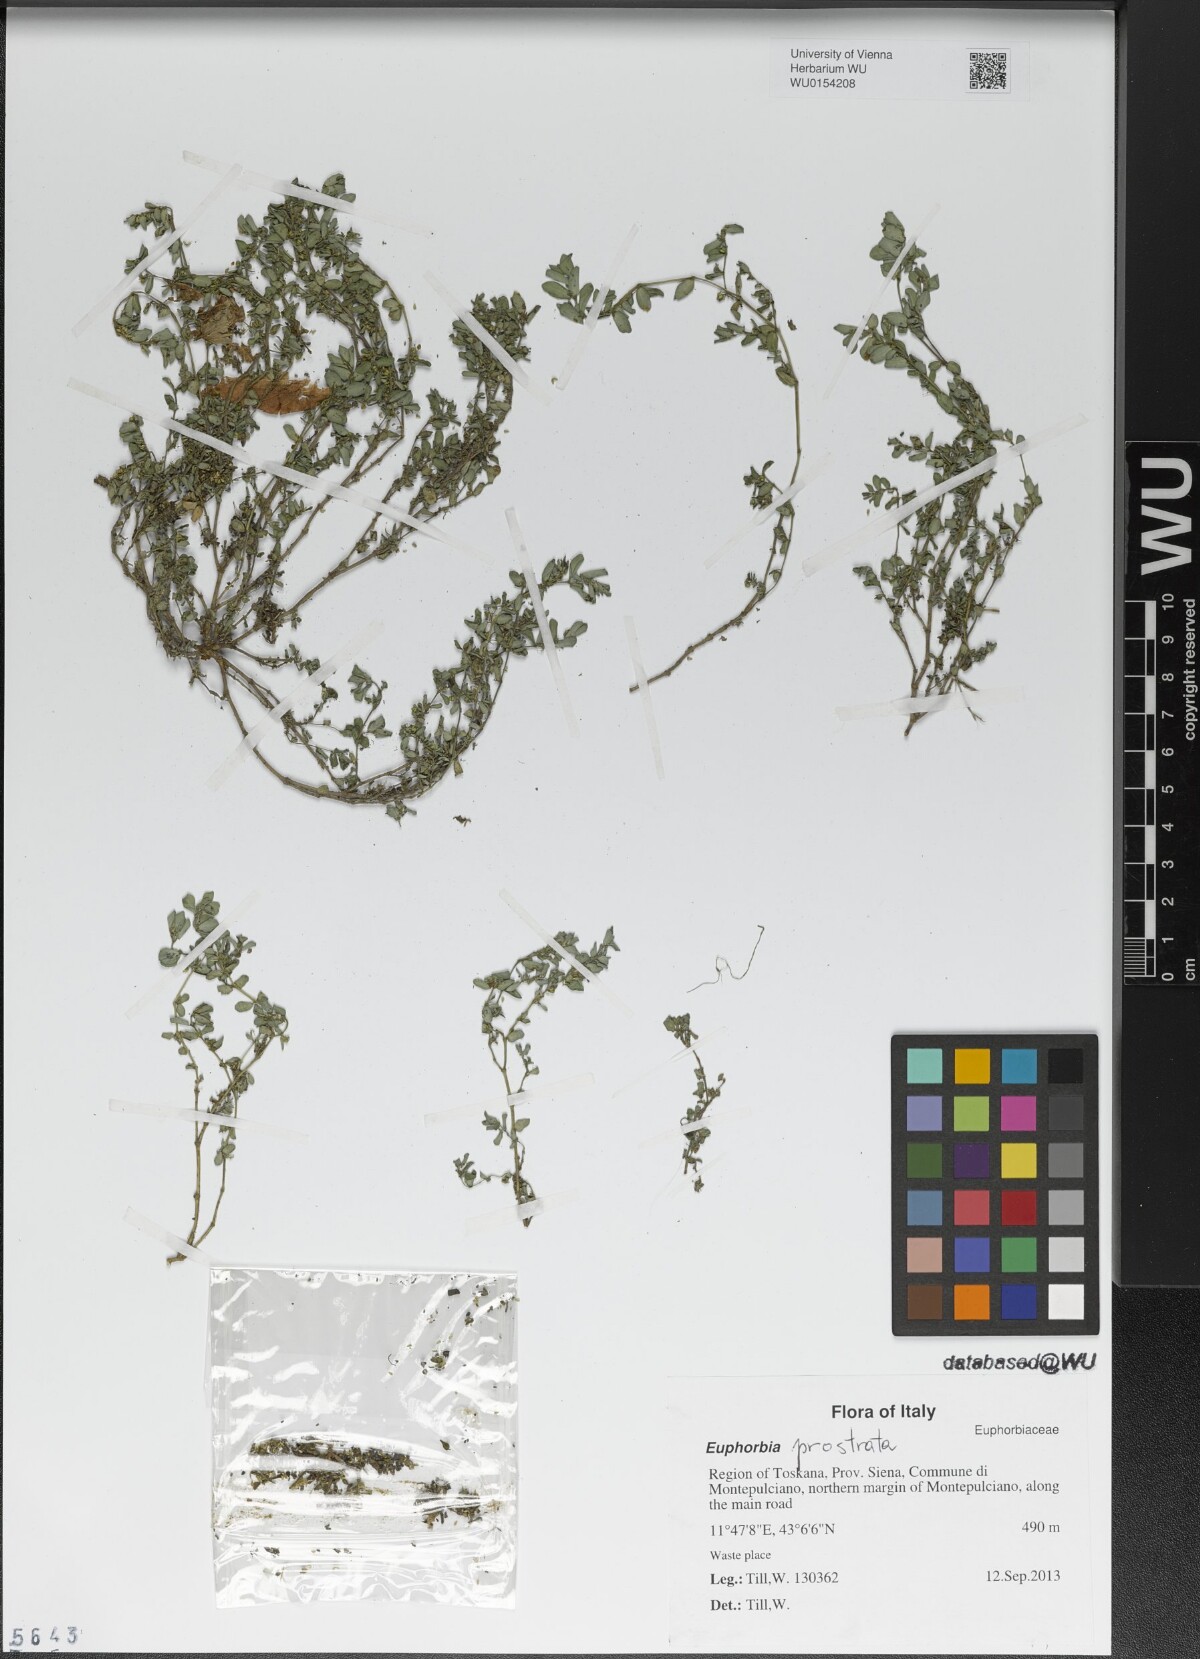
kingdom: Plantae
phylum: Tracheophyta
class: Magnoliopsida
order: Malpighiales
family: Euphorbiaceae
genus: Euphorbia
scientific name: Euphorbia prostrata
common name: Prostrate sandmat
